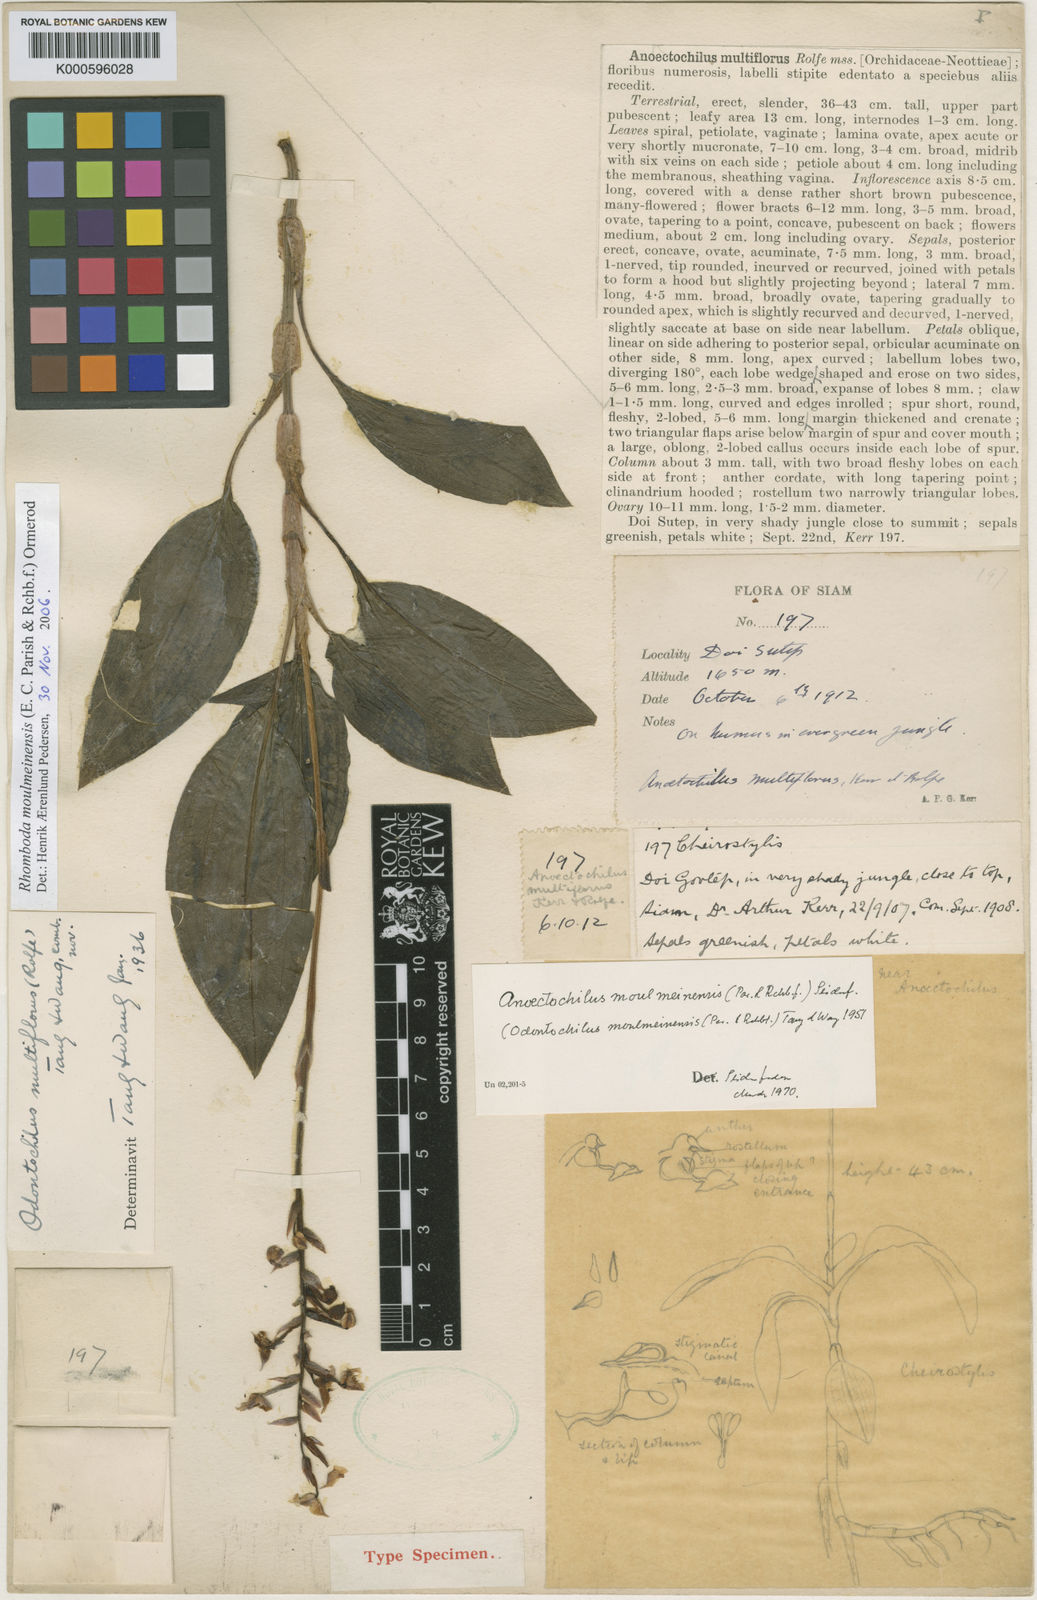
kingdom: Plantae
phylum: Tracheophyta
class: Liliopsida
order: Asparagales
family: Orchidaceae
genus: Rhomboda
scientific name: Rhomboda moulmeinensis
